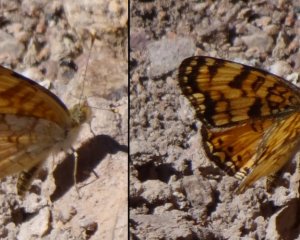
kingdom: Animalia
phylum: Arthropoda
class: Insecta
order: Lepidoptera
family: Nymphalidae
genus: Eresia
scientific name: Eresia aveyrona
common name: Mylitta Crescent
